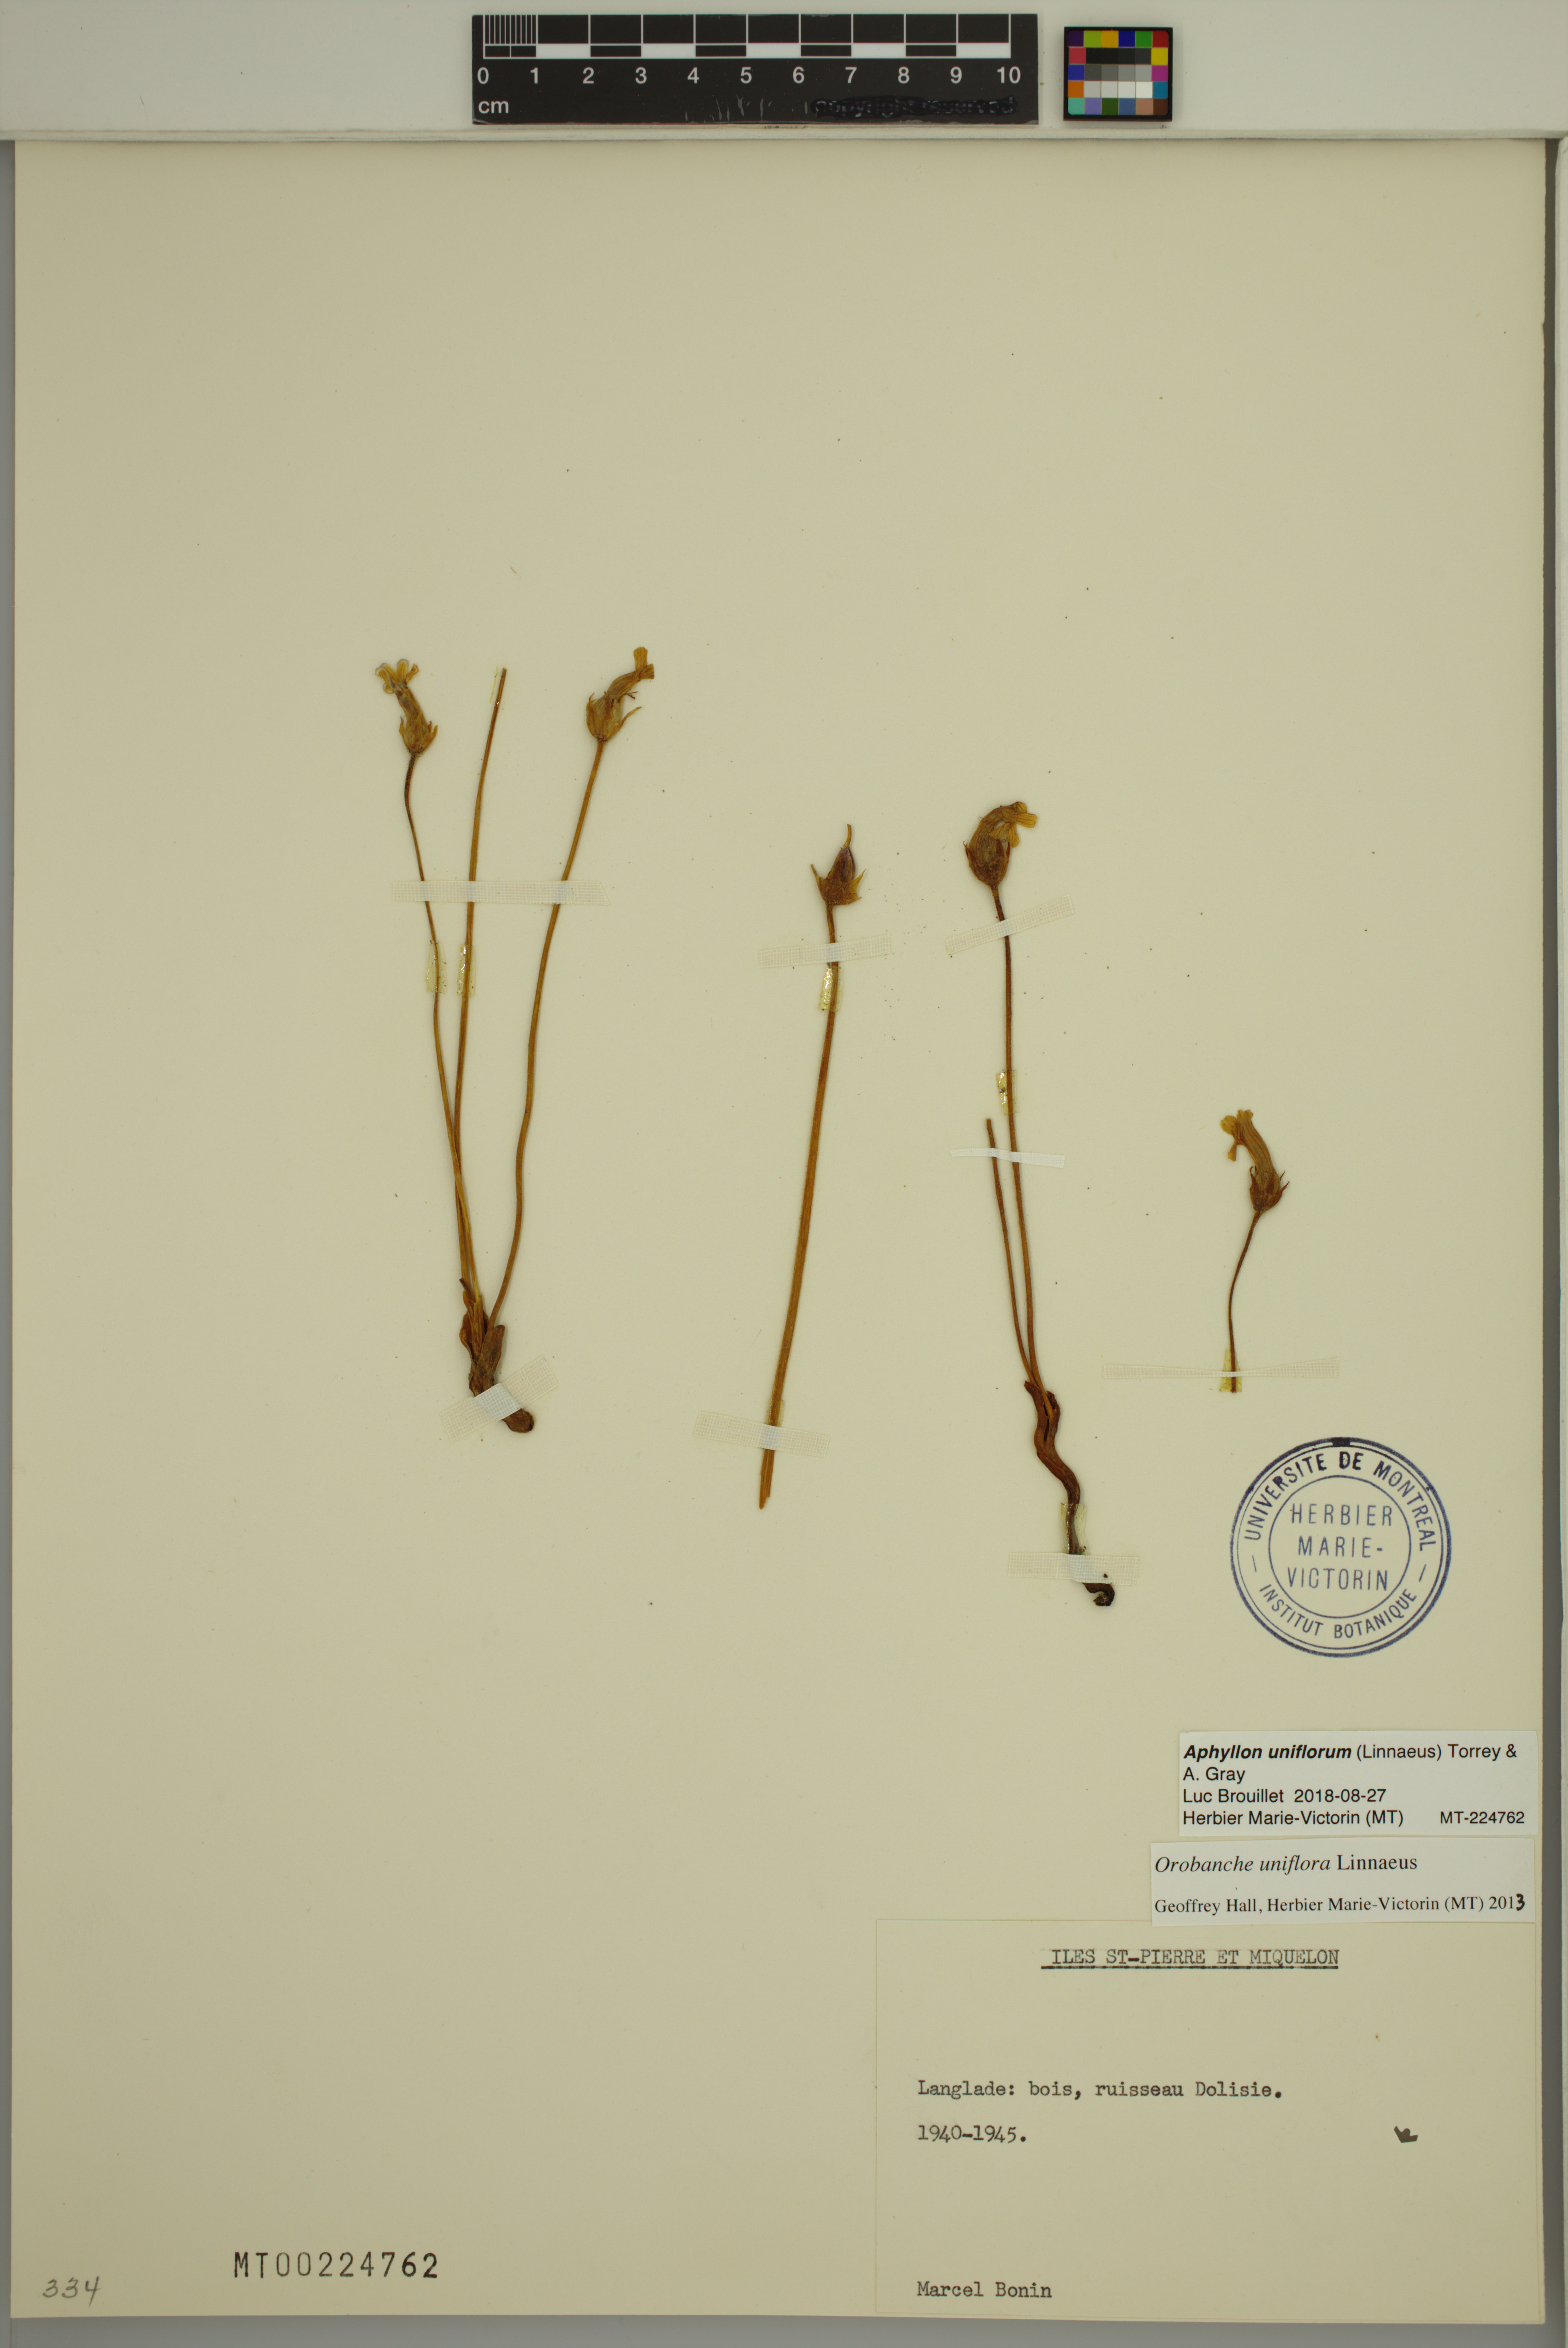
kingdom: Plantae
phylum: Tracheophyta
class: Magnoliopsida
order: Lamiales
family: Orobanchaceae
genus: Aphyllon
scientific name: Aphyllon uniflorum
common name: One-flowered broomrape
